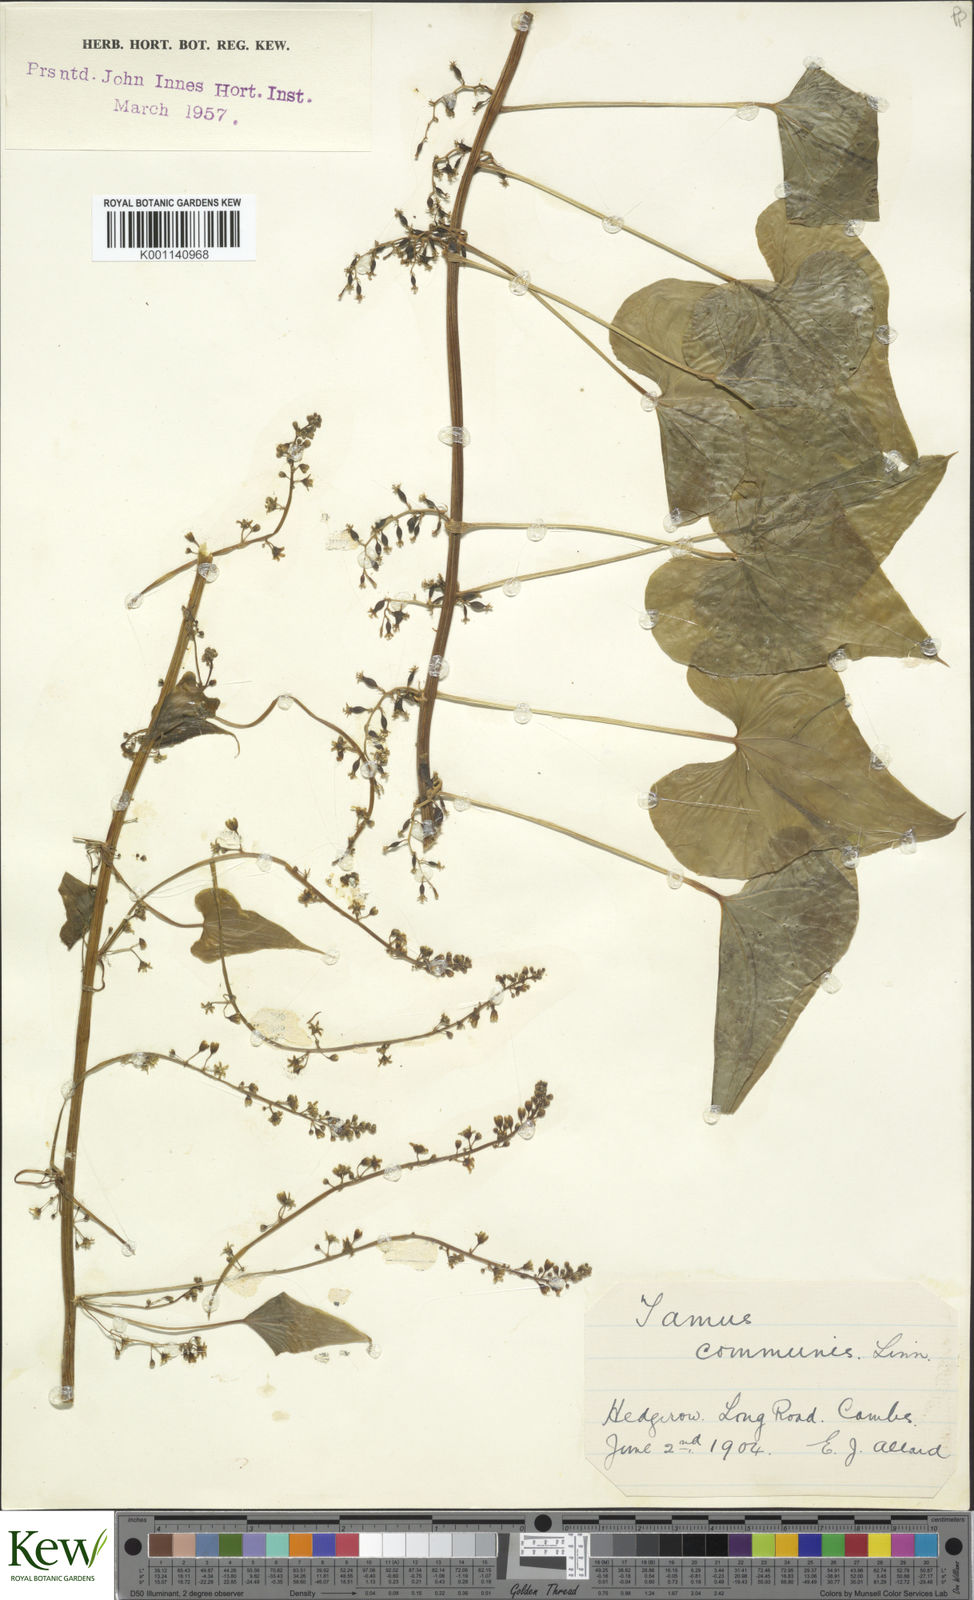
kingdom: Plantae
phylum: Tracheophyta
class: Liliopsida
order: Dioscoreales
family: Dioscoreaceae
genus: Dioscorea
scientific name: Dioscorea communis
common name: Black-bindweed
